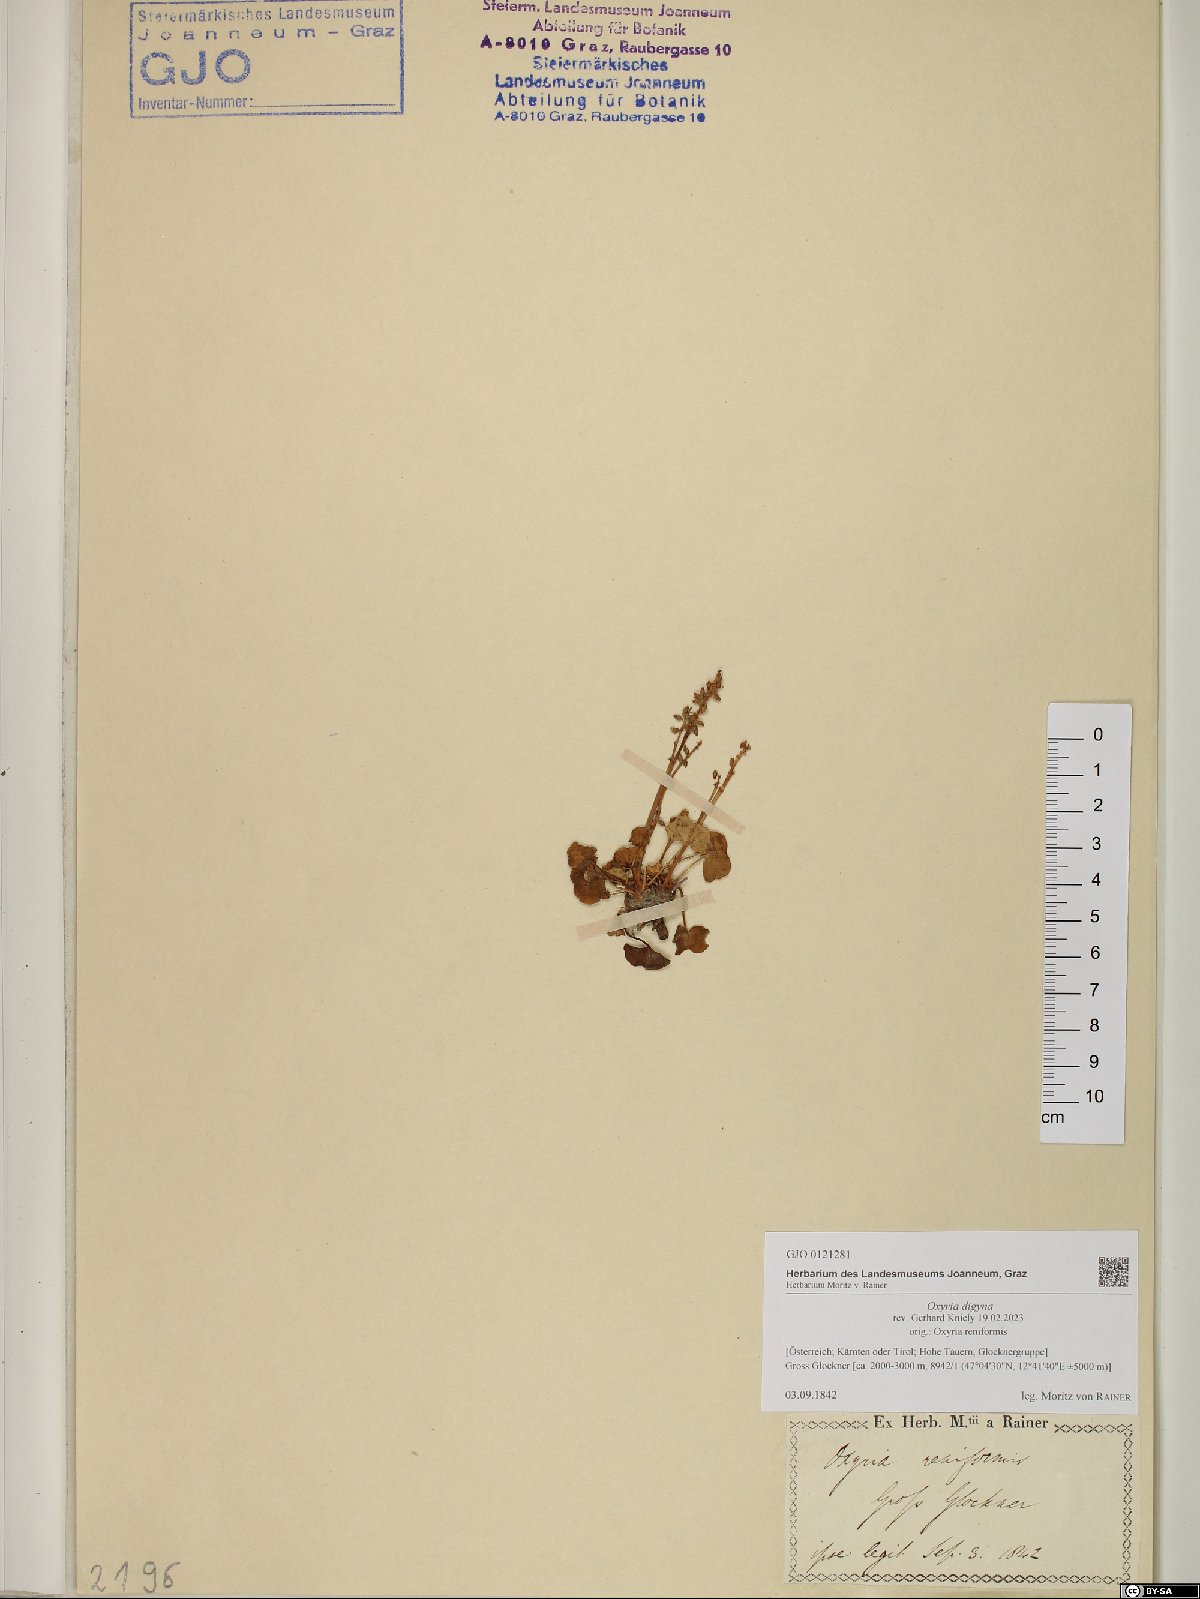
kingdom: Plantae
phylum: Tracheophyta
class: Magnoliopsida
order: Caryophyllales
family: Polygonaceae
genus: Oxyria
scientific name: Oxyria digyna
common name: Alpine mountain-sorrel
